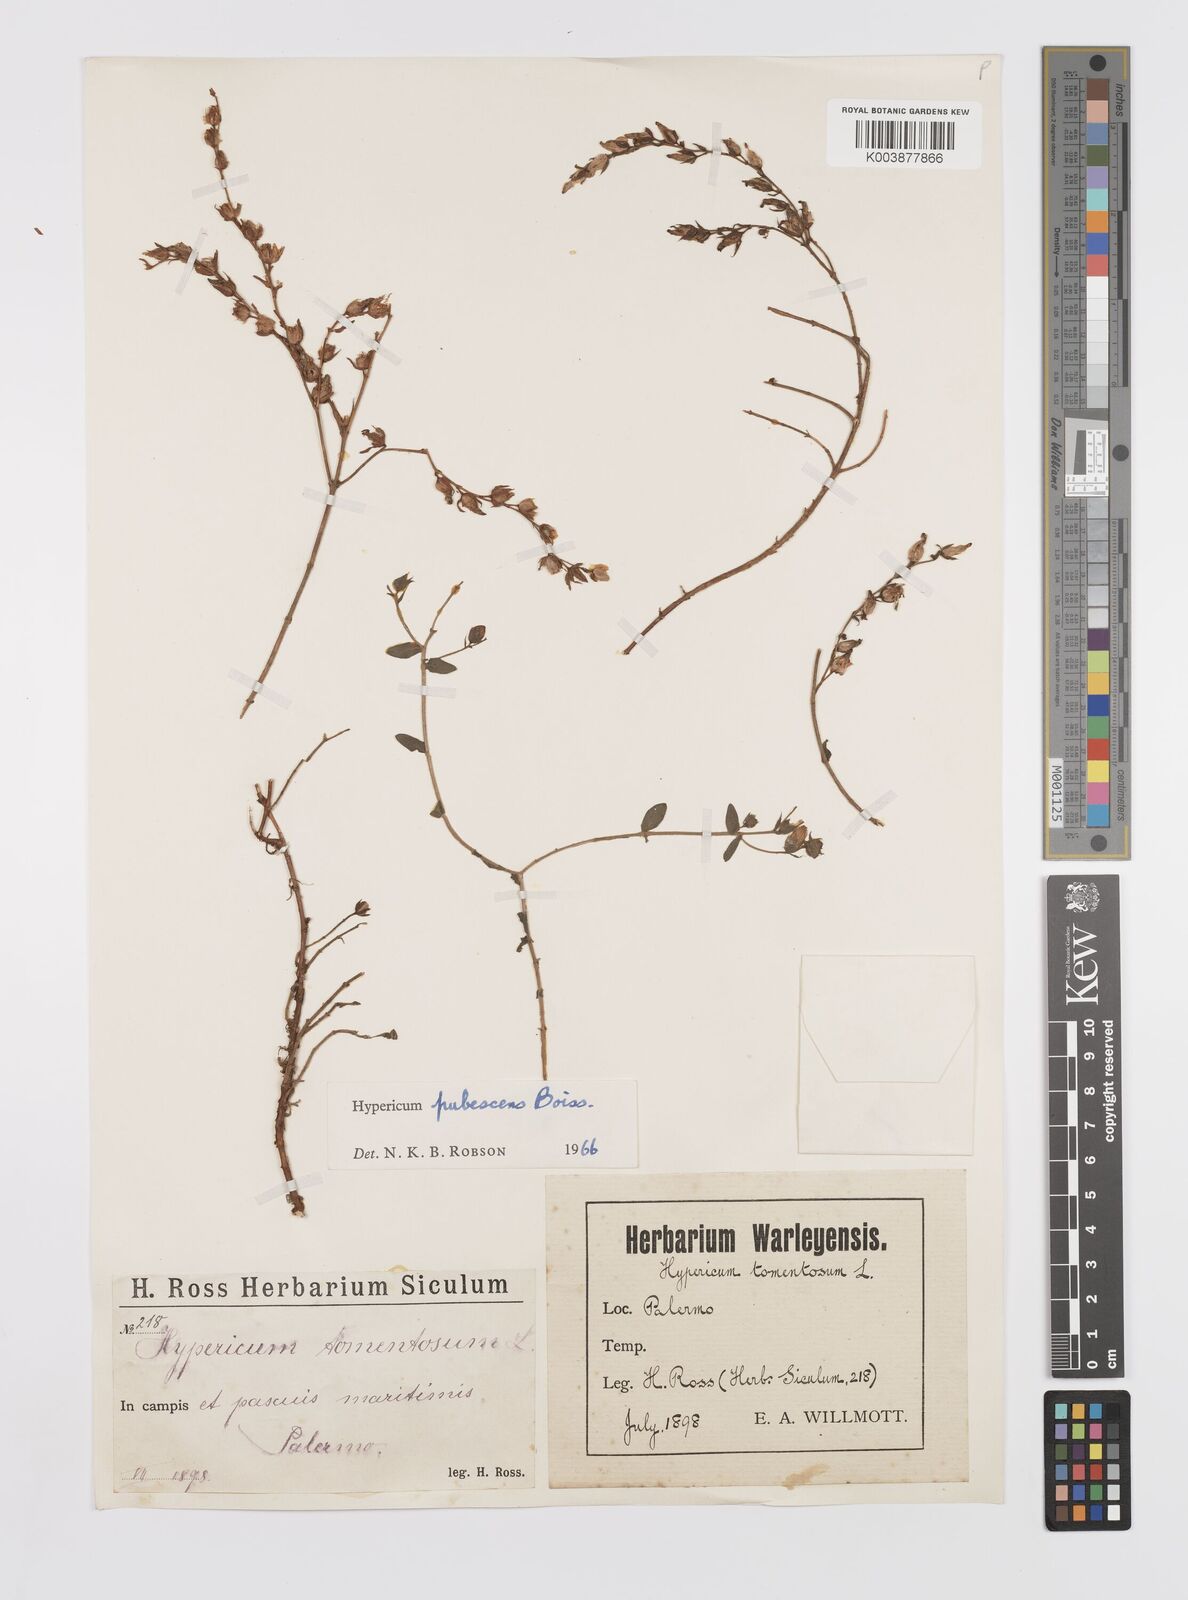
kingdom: Plantae
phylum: Tracheophyta
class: Magnoliopsida
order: Malpighiales
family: Hypericaceae
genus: Hypericum
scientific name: Hypericum pubescens
